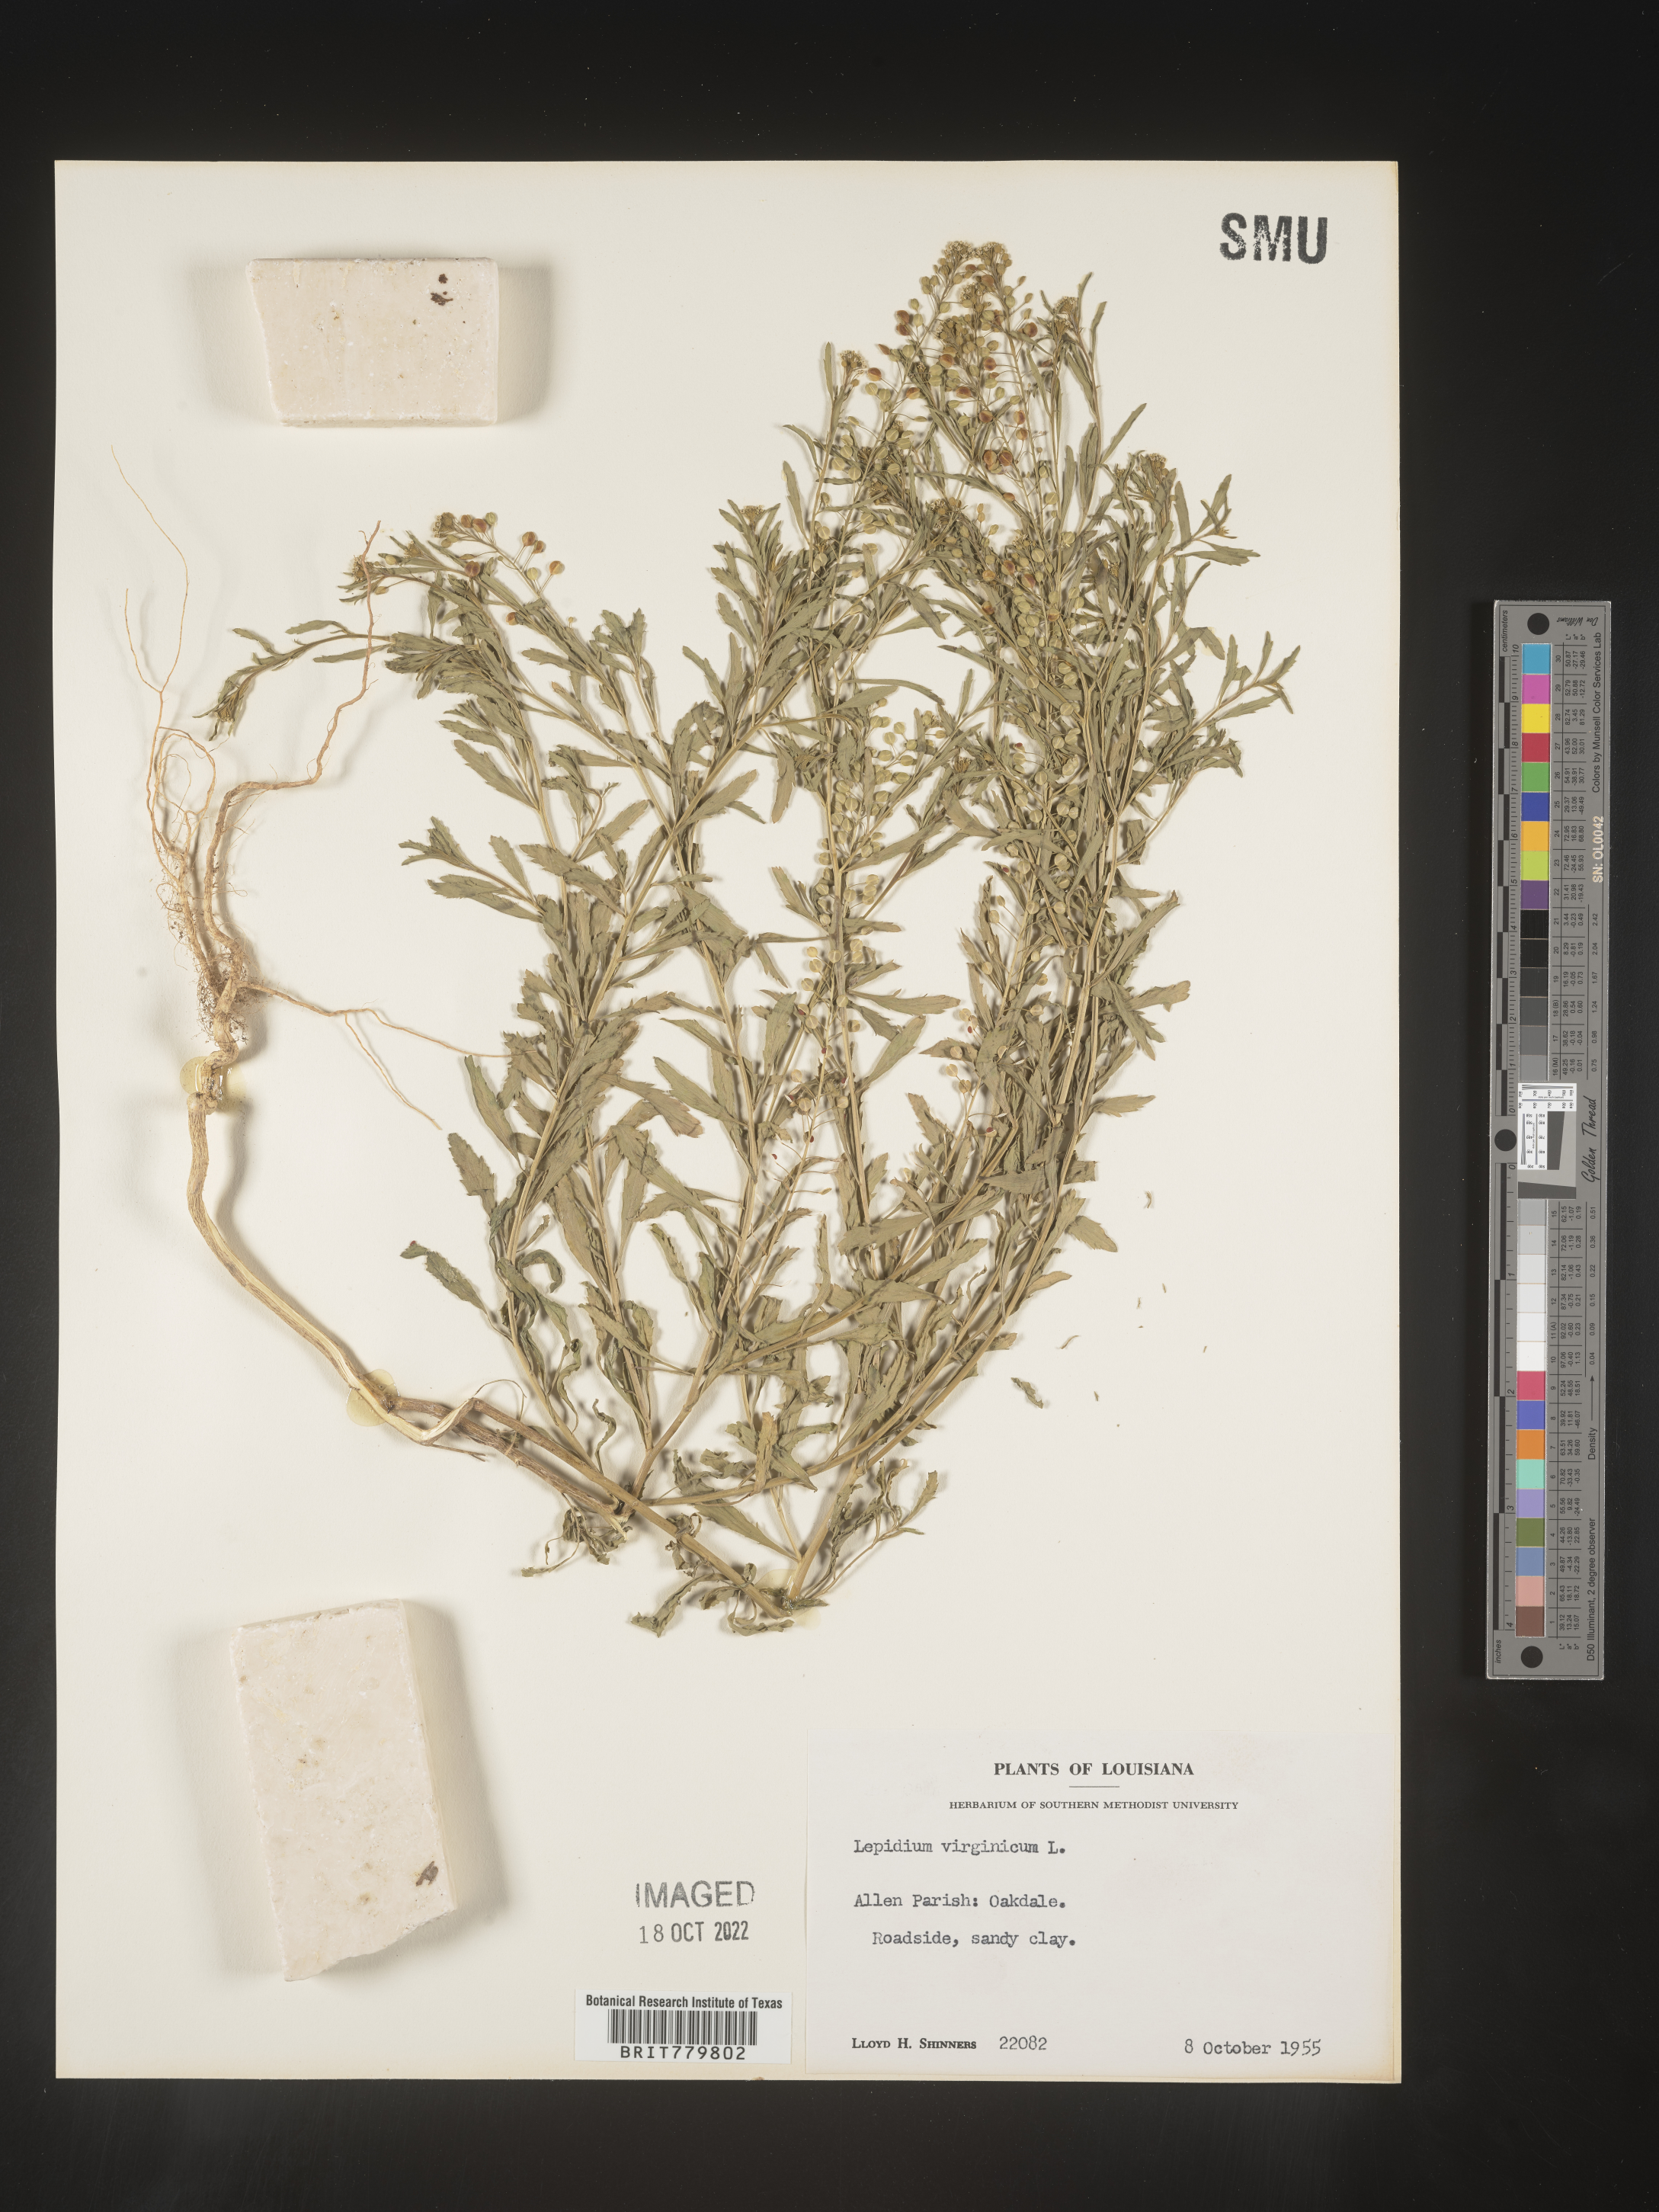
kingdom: Plantae
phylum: Tracheophyta
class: Magnoliopsida
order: Brassicales
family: Brassicaceae
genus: Lepidium
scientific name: Lepidium virginicum
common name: Least pepperwort
